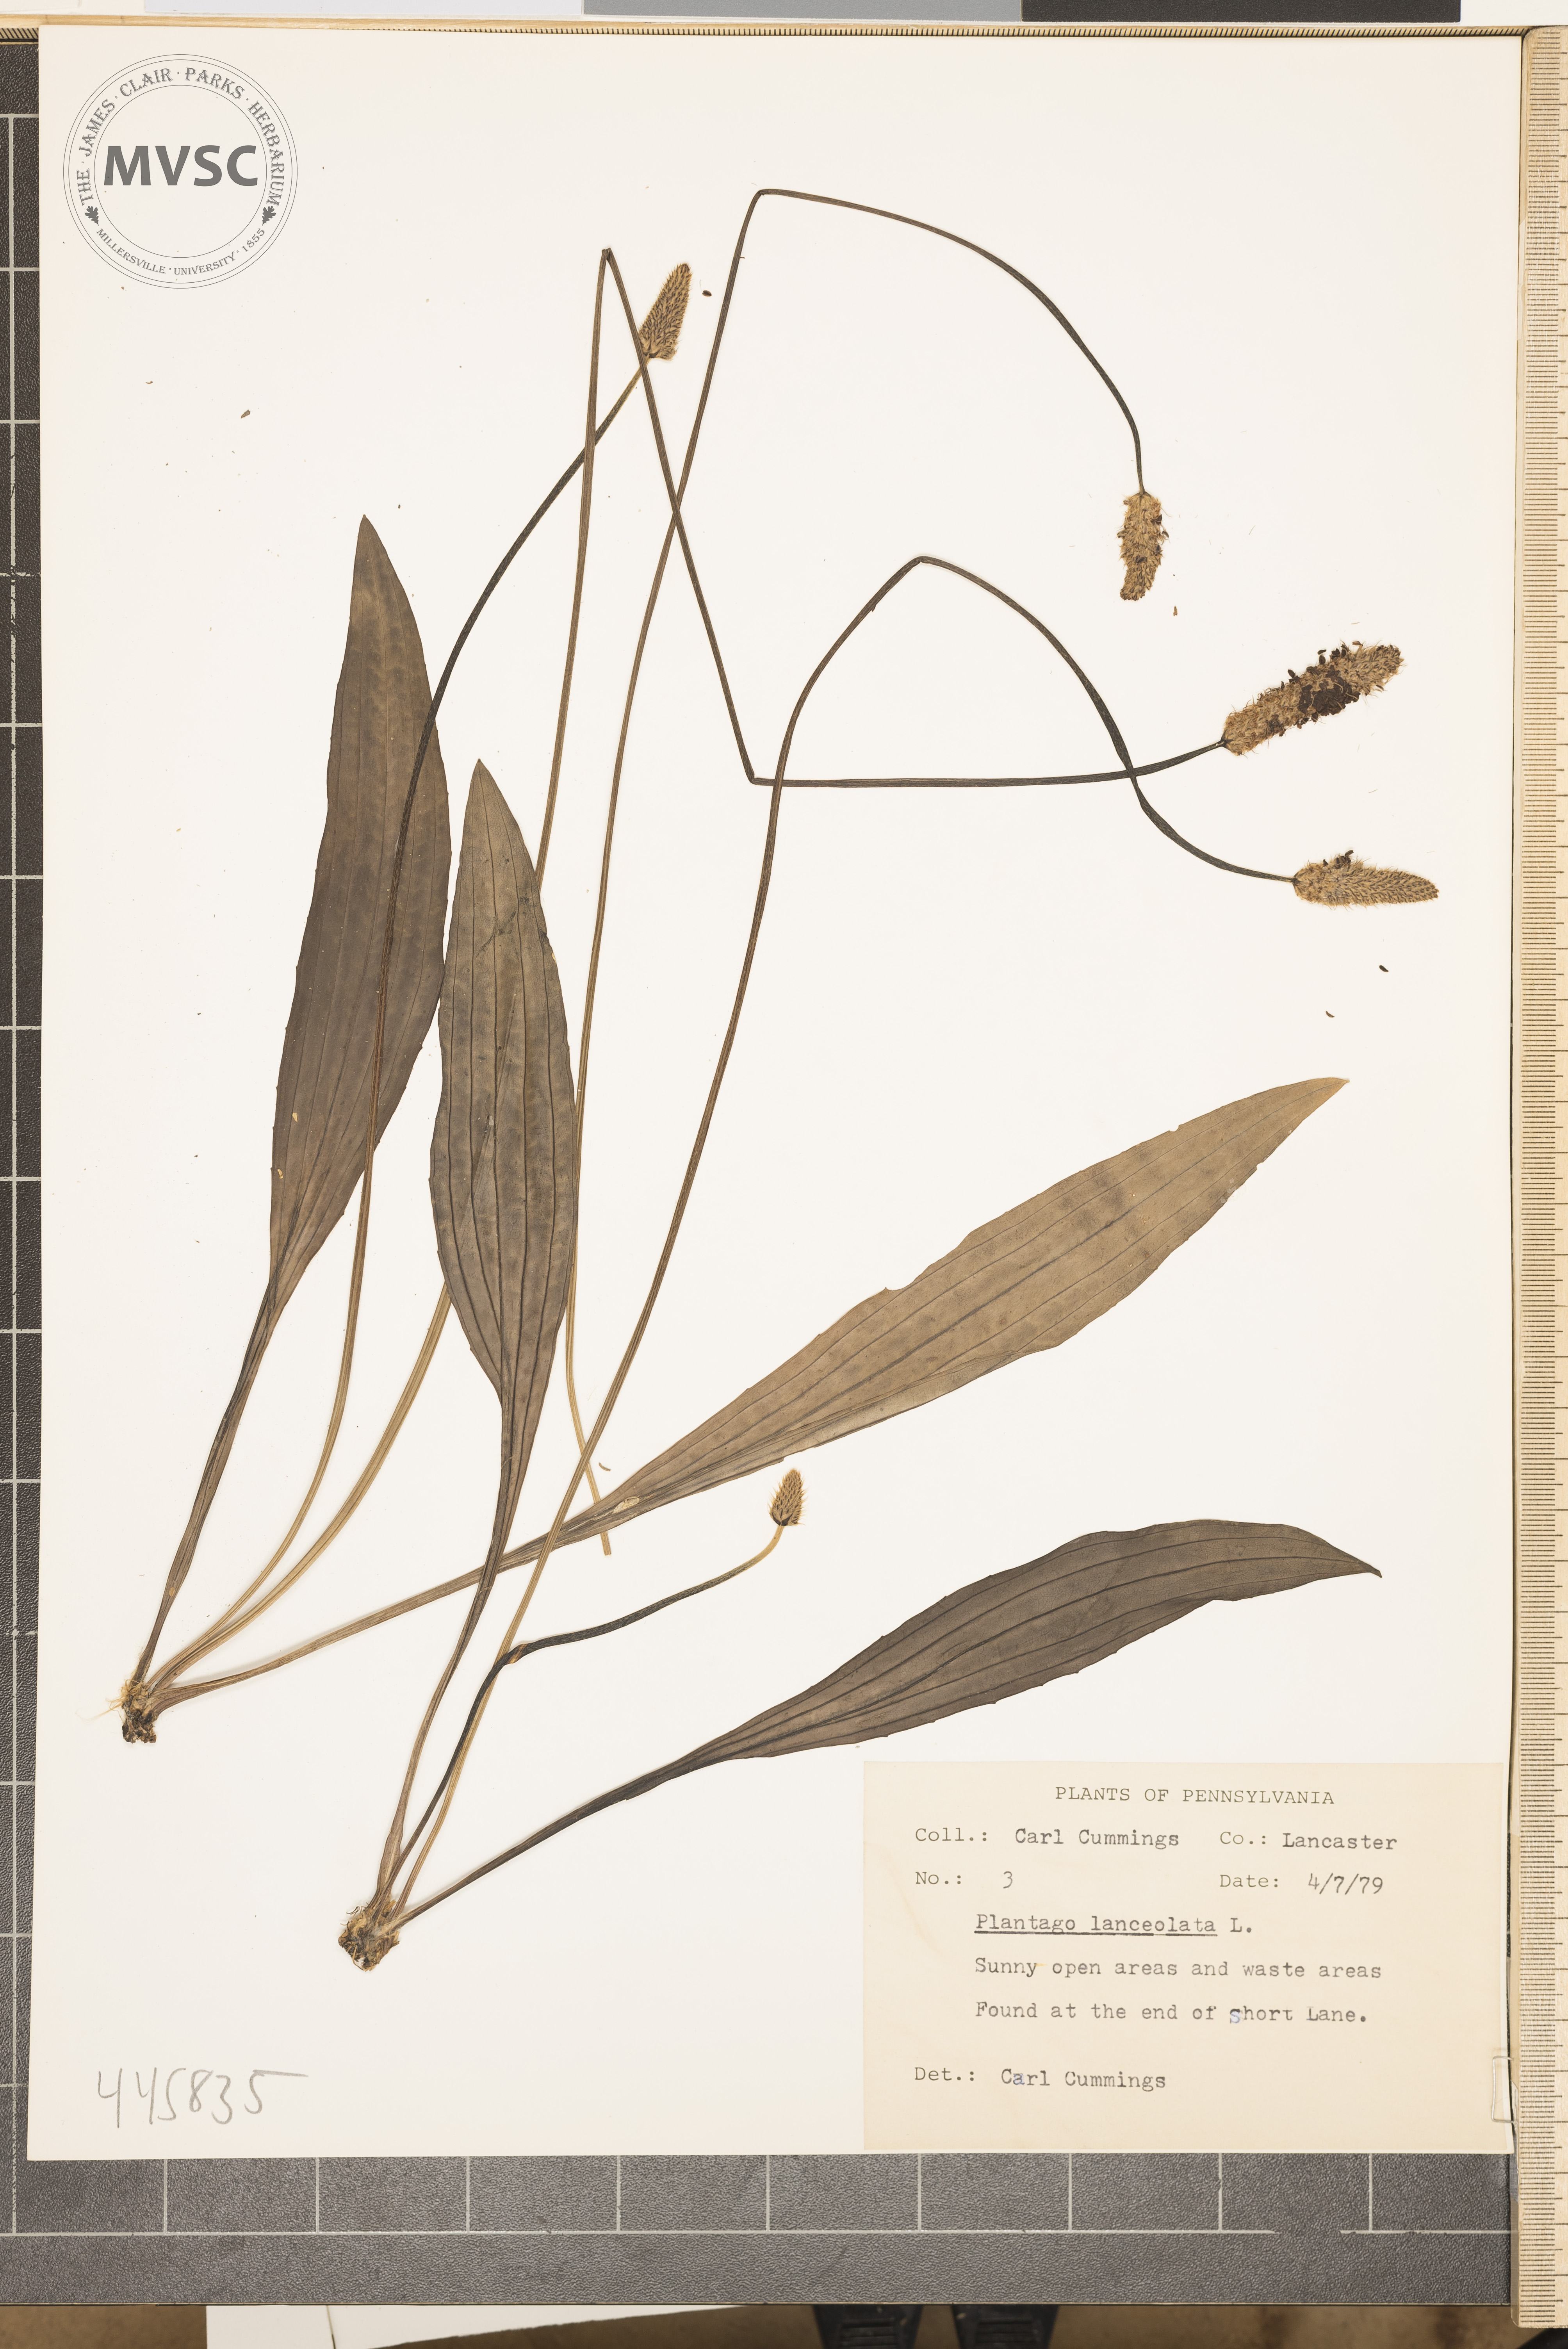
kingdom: Plantae
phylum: Tracheophyta
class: Magnoliopsida
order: Lamiales
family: Plantaginaceae
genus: Plantago
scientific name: Plantago lanceolata
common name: Ribwort plantain
